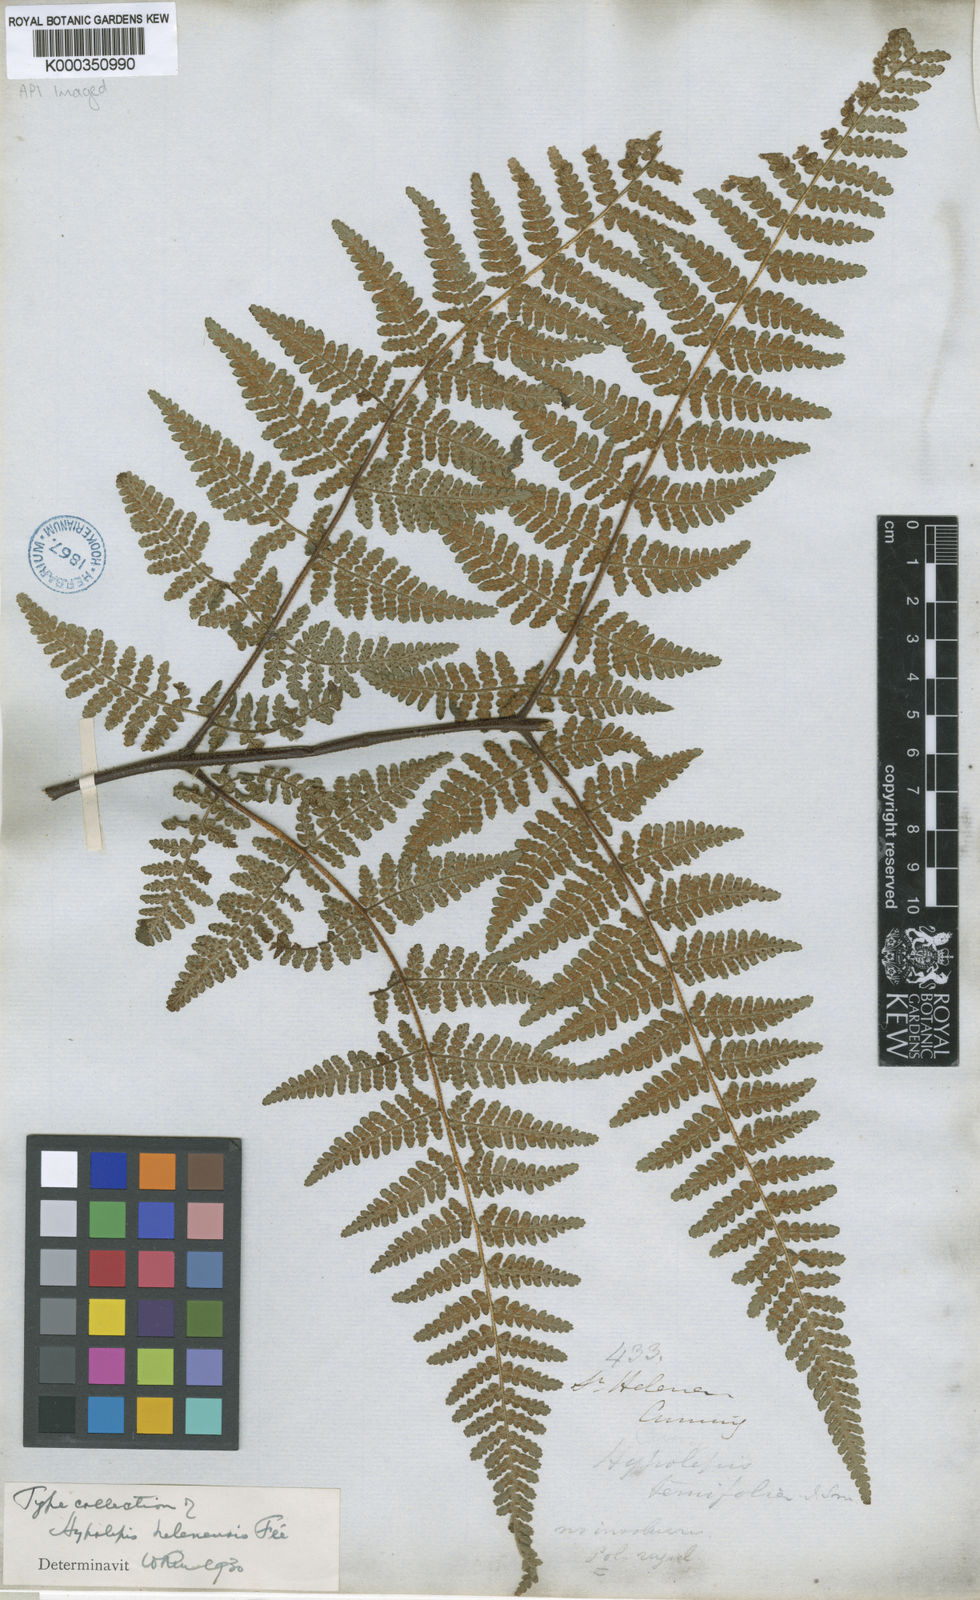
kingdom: Plantae
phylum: Tracheophyta
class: Polypodiopsida
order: Polypodiales
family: Dennstaedtiaceae
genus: Hypolepis
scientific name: Hypolepis
